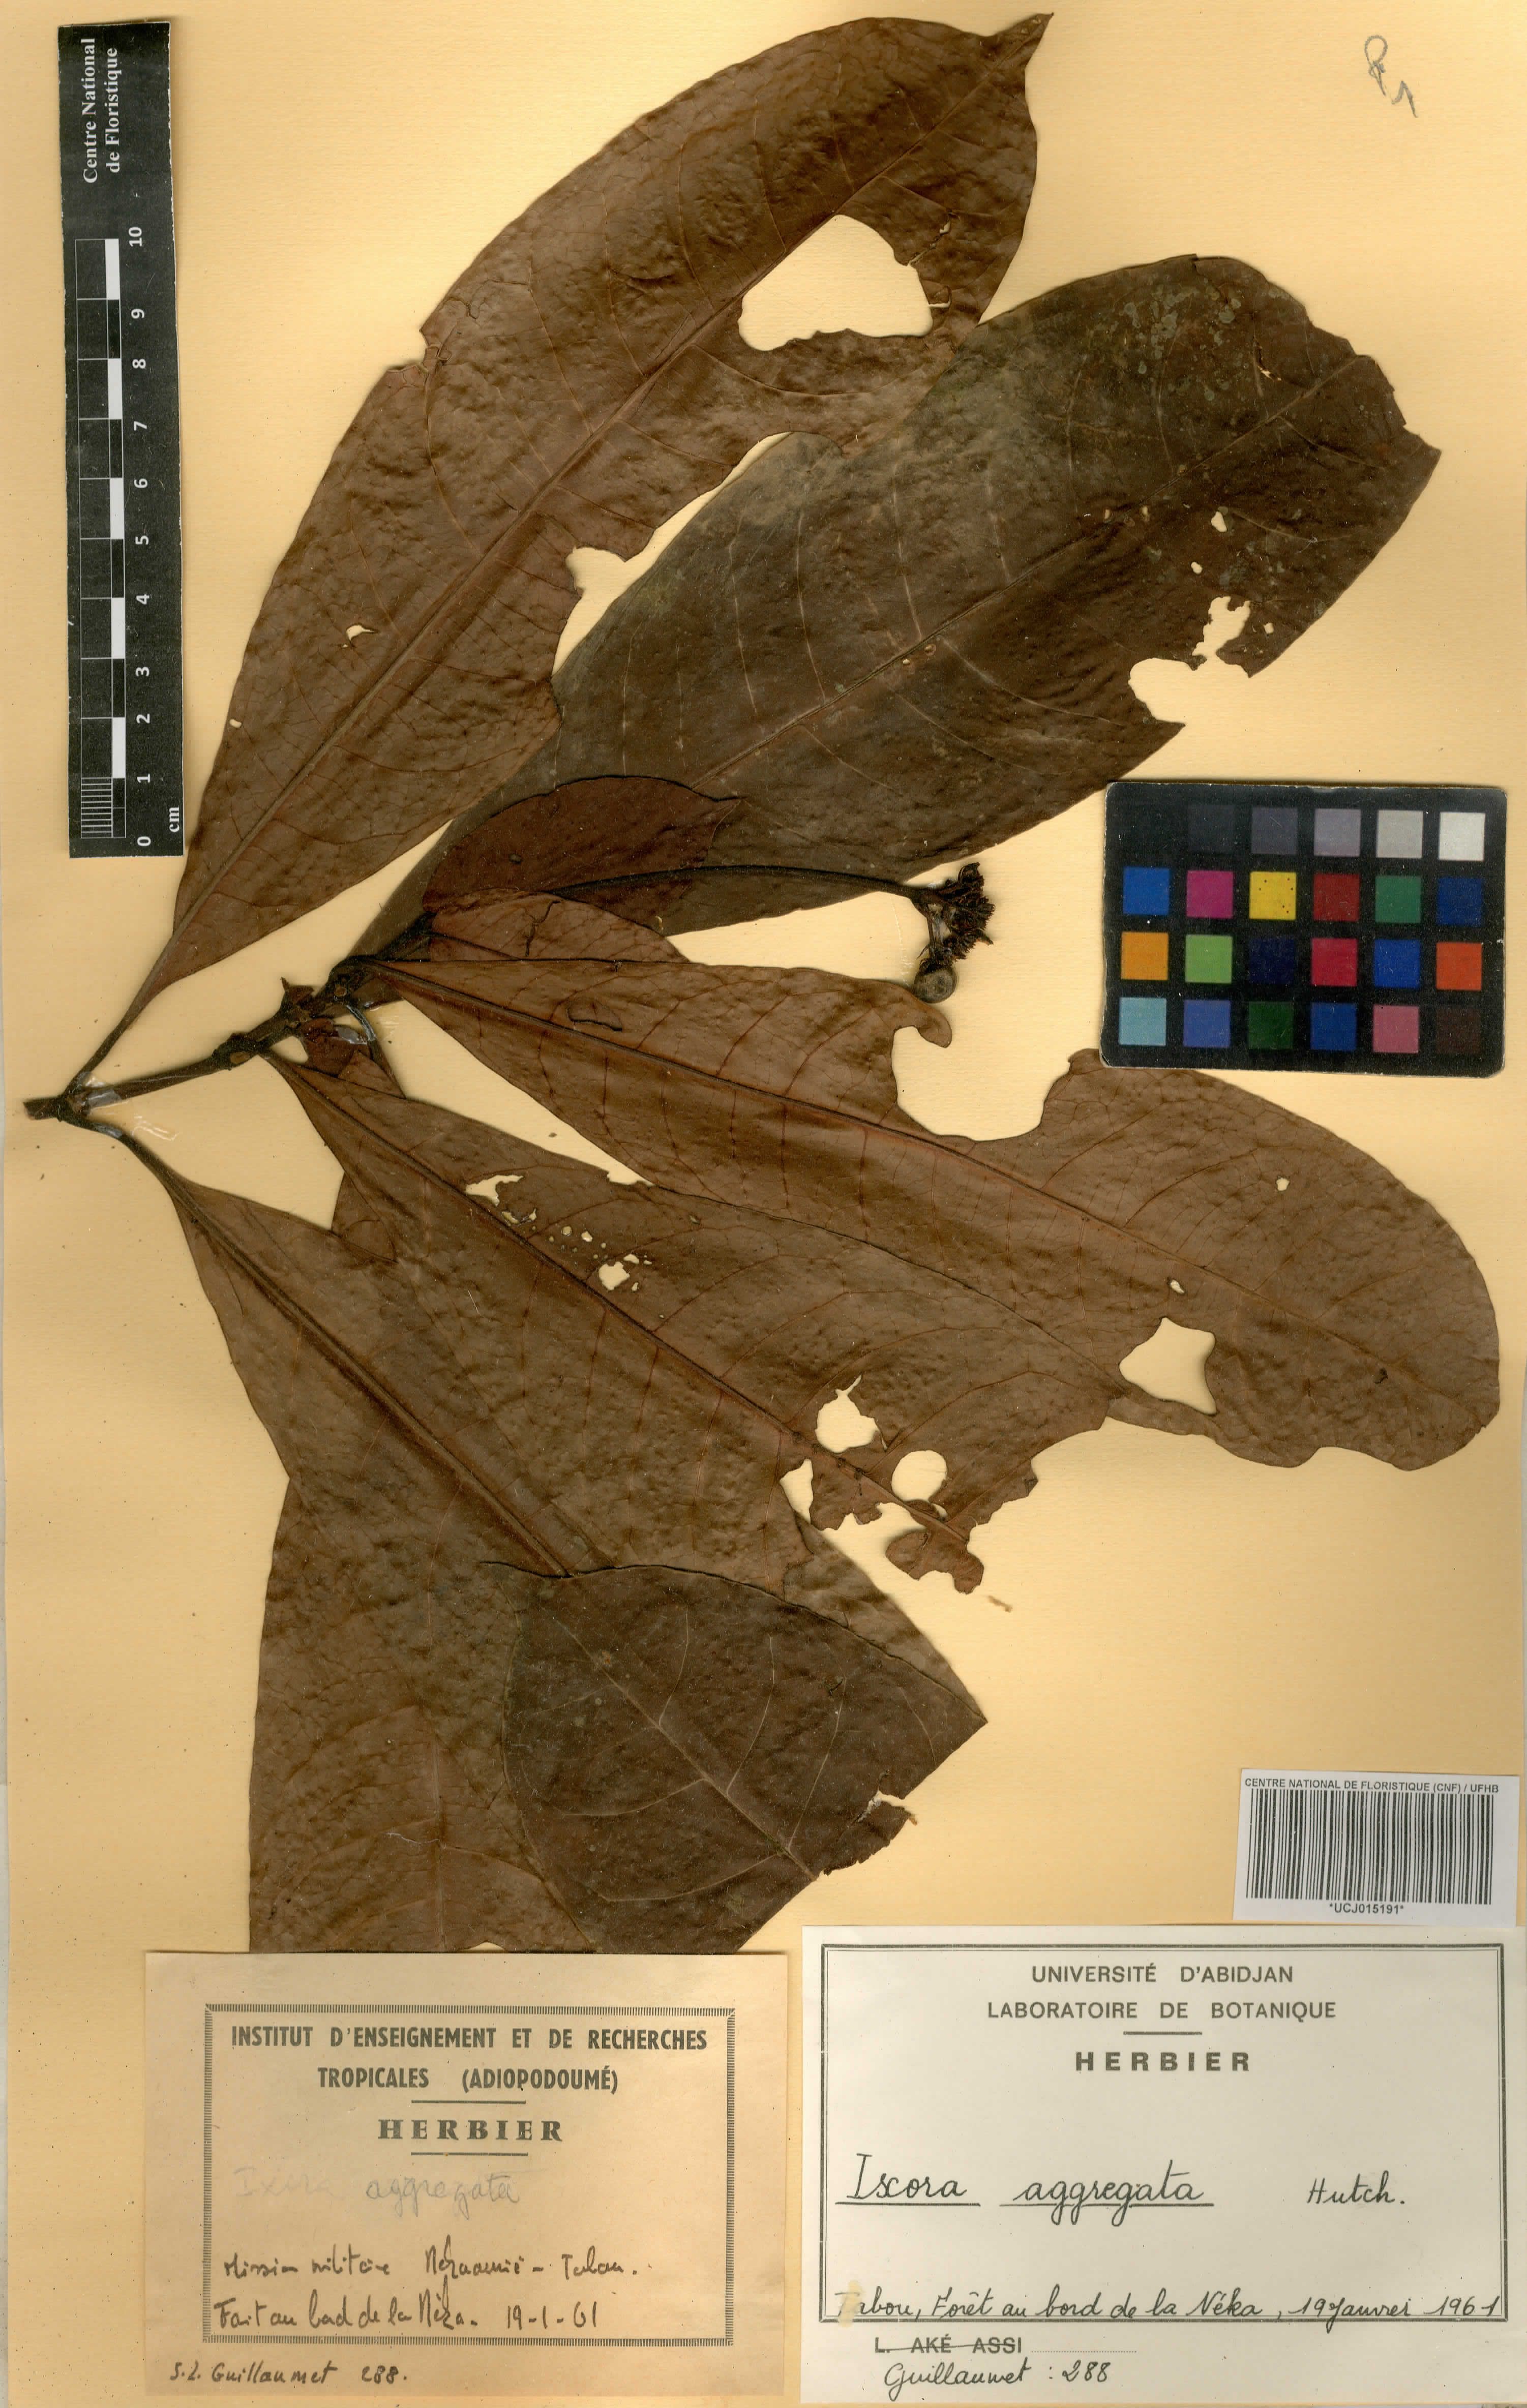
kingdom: Plantae
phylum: Tracheophyta
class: Magnoliopsida
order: Gentianales
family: Rubiaceae
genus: Ixora
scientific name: Ixora aggregata
